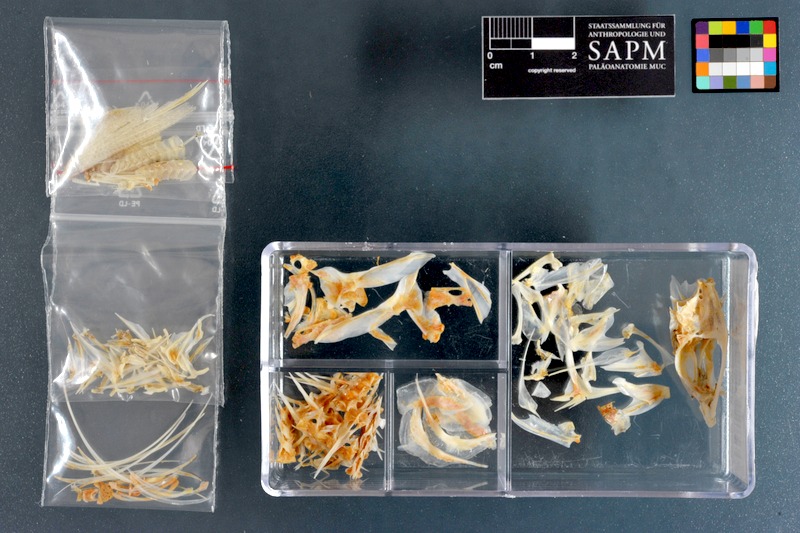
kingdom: Animalia
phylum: Chordata
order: Perciformes
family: Carangidae
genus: Alepes
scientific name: Alepes djedaba
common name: Shrimp scad
